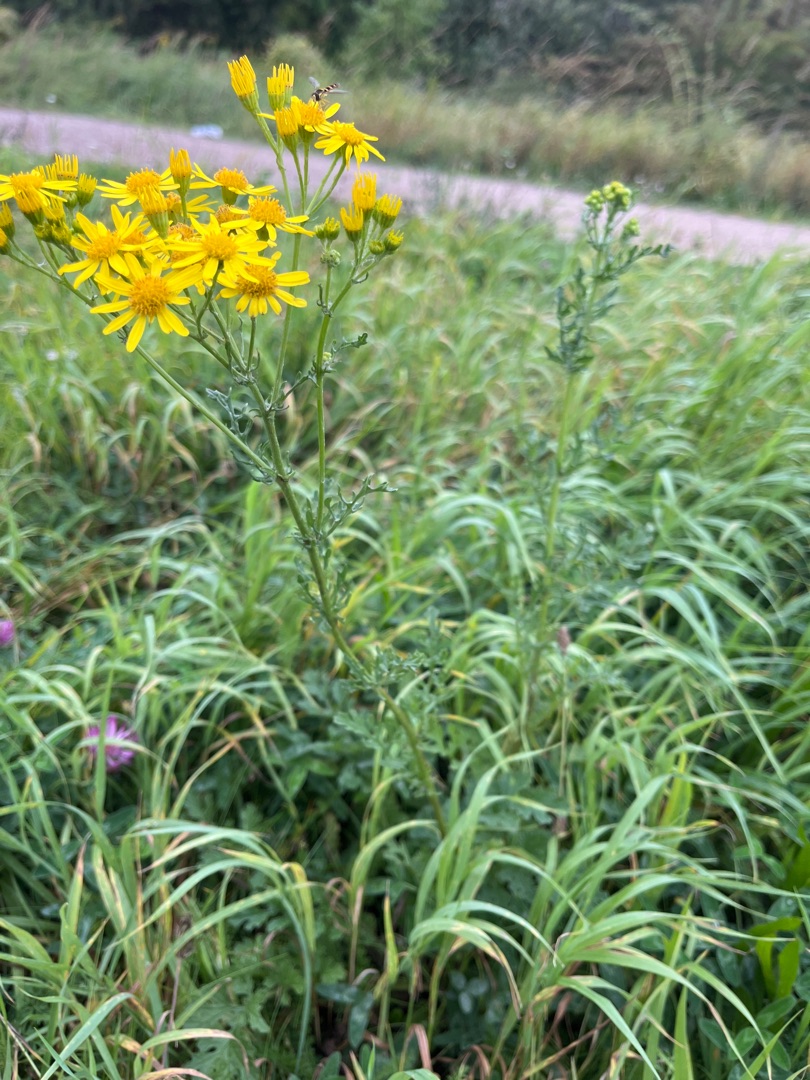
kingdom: Plantae
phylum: Tracheophyta
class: Magnoliopsida
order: Asterales
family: Asteraceae
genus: Jacobaea
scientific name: Jacobaea vulgaris
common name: Eng-brandbæger
